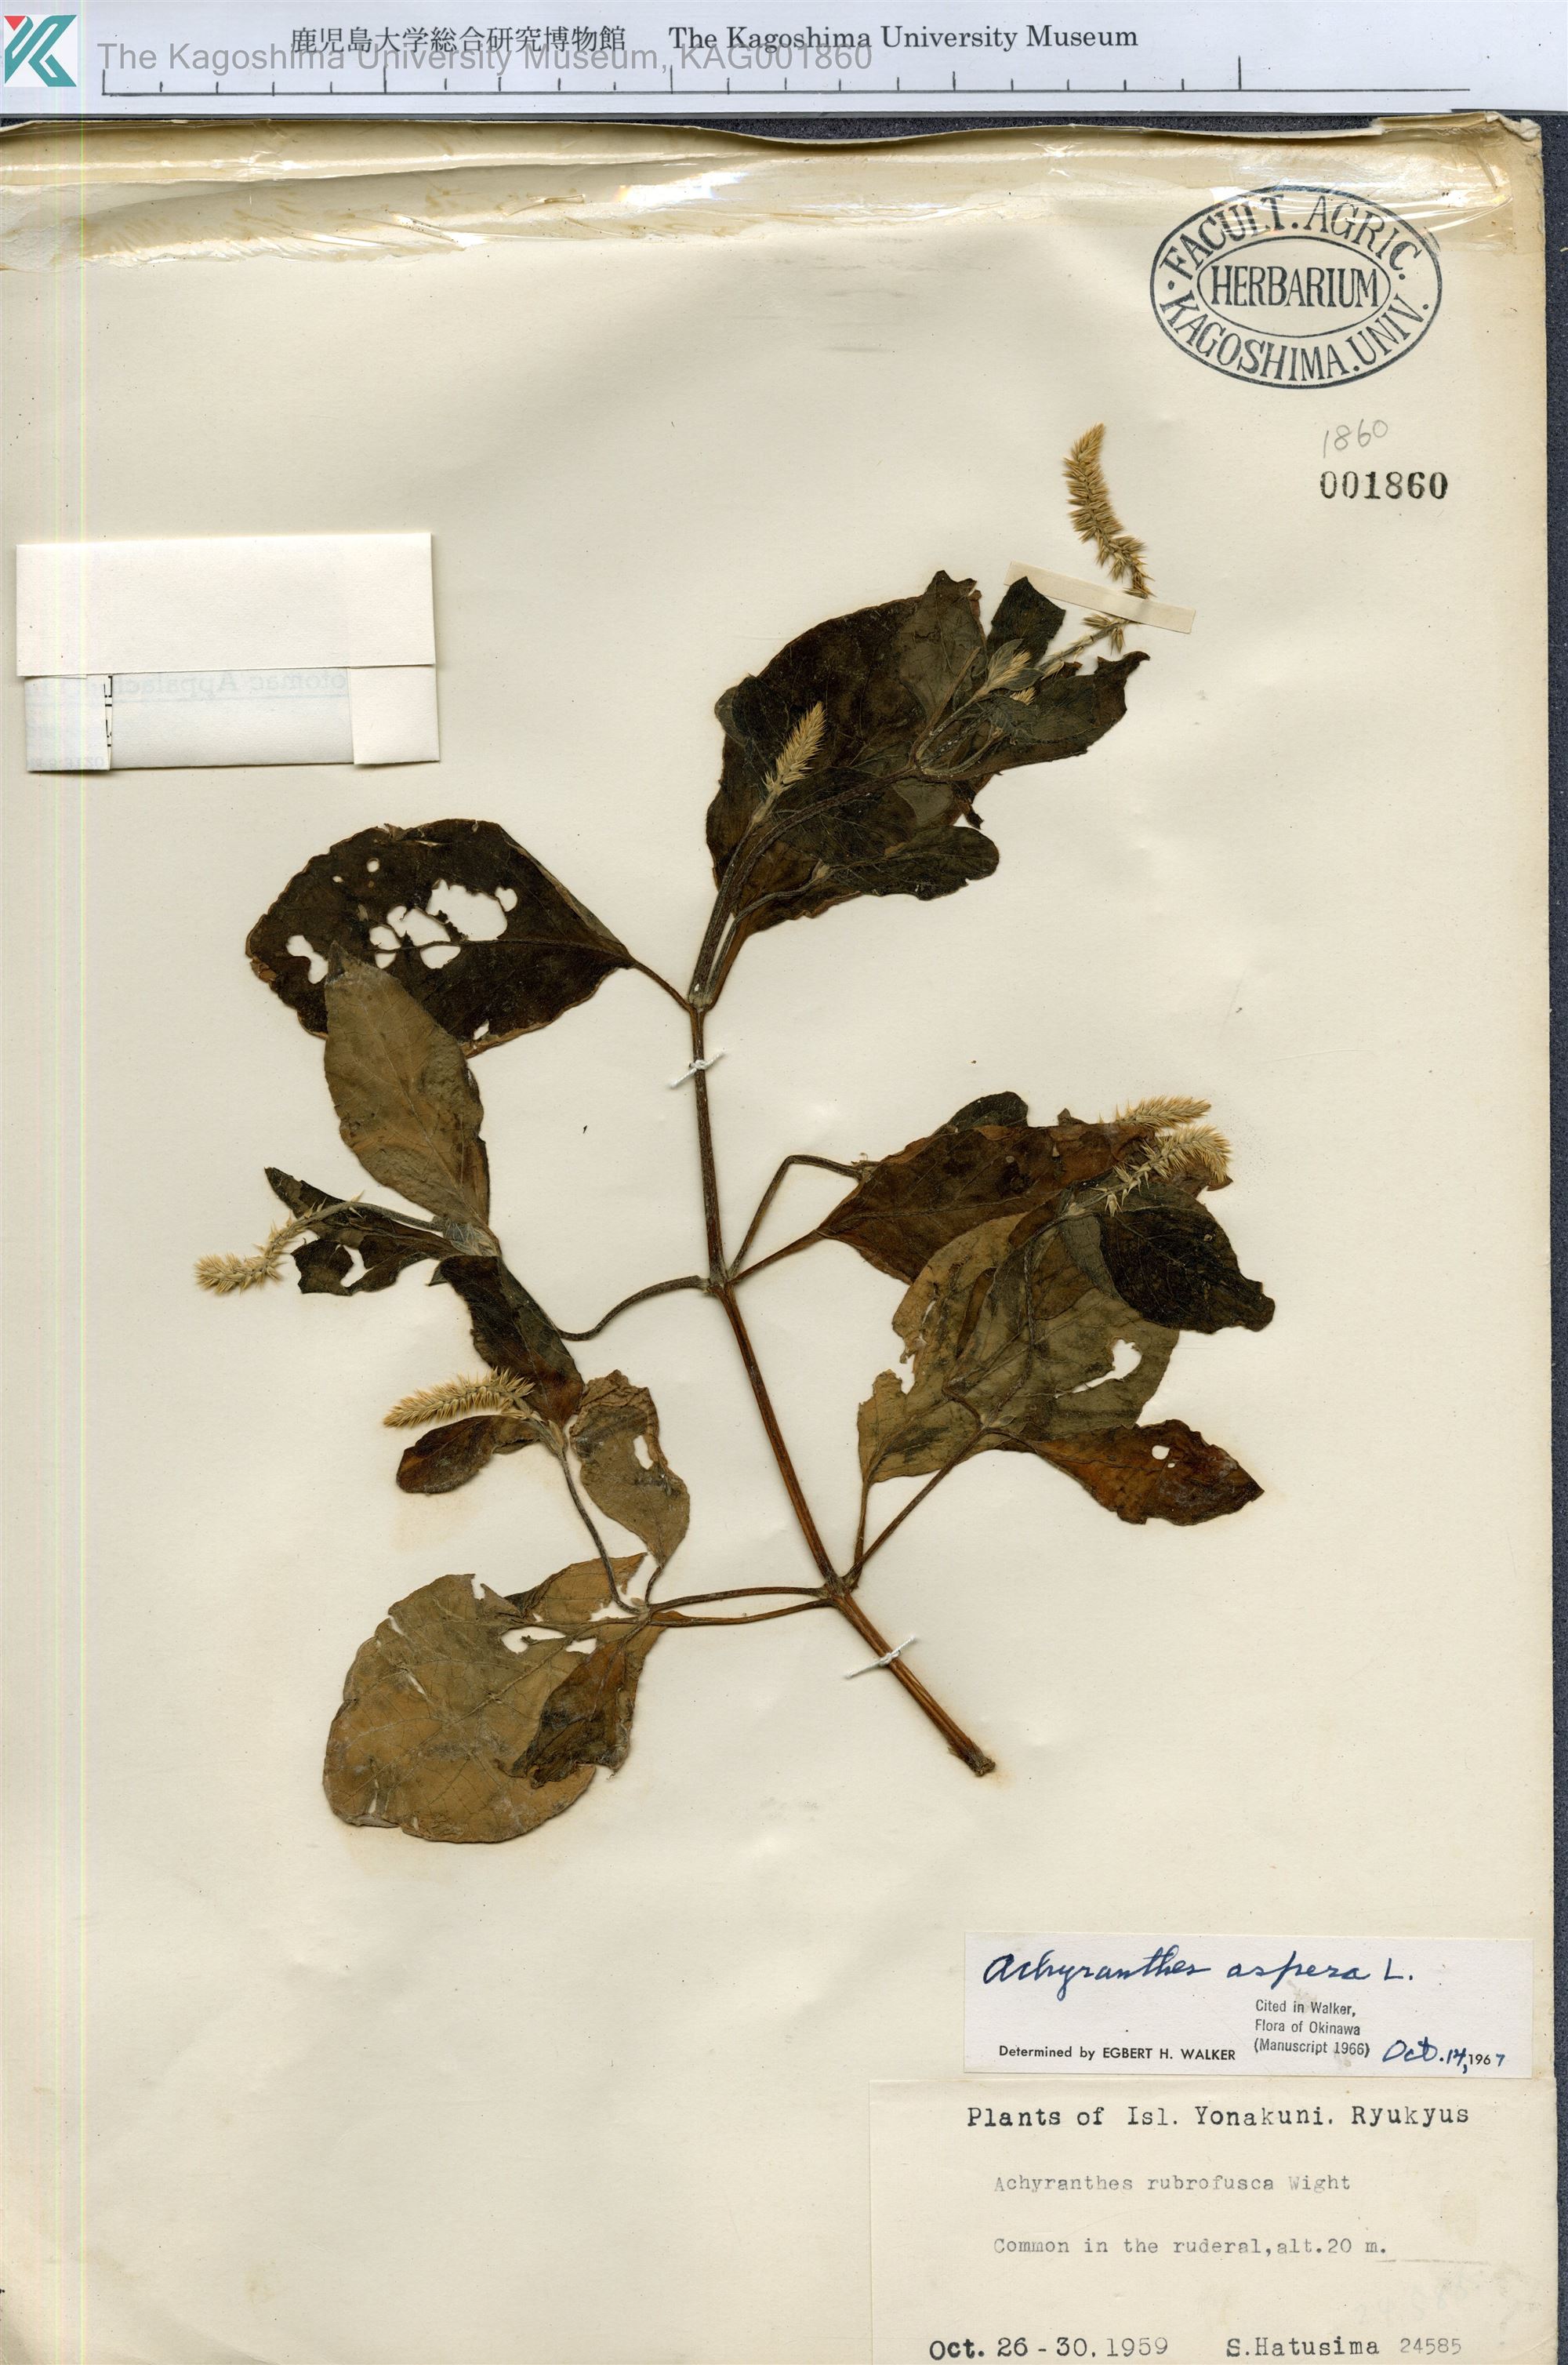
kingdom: Plantae
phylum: Tracheophyta
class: Magnoliopsida
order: Caryophyllales
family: Amaranthaceae
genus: Achyranthes
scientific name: Achyranthes aspera
